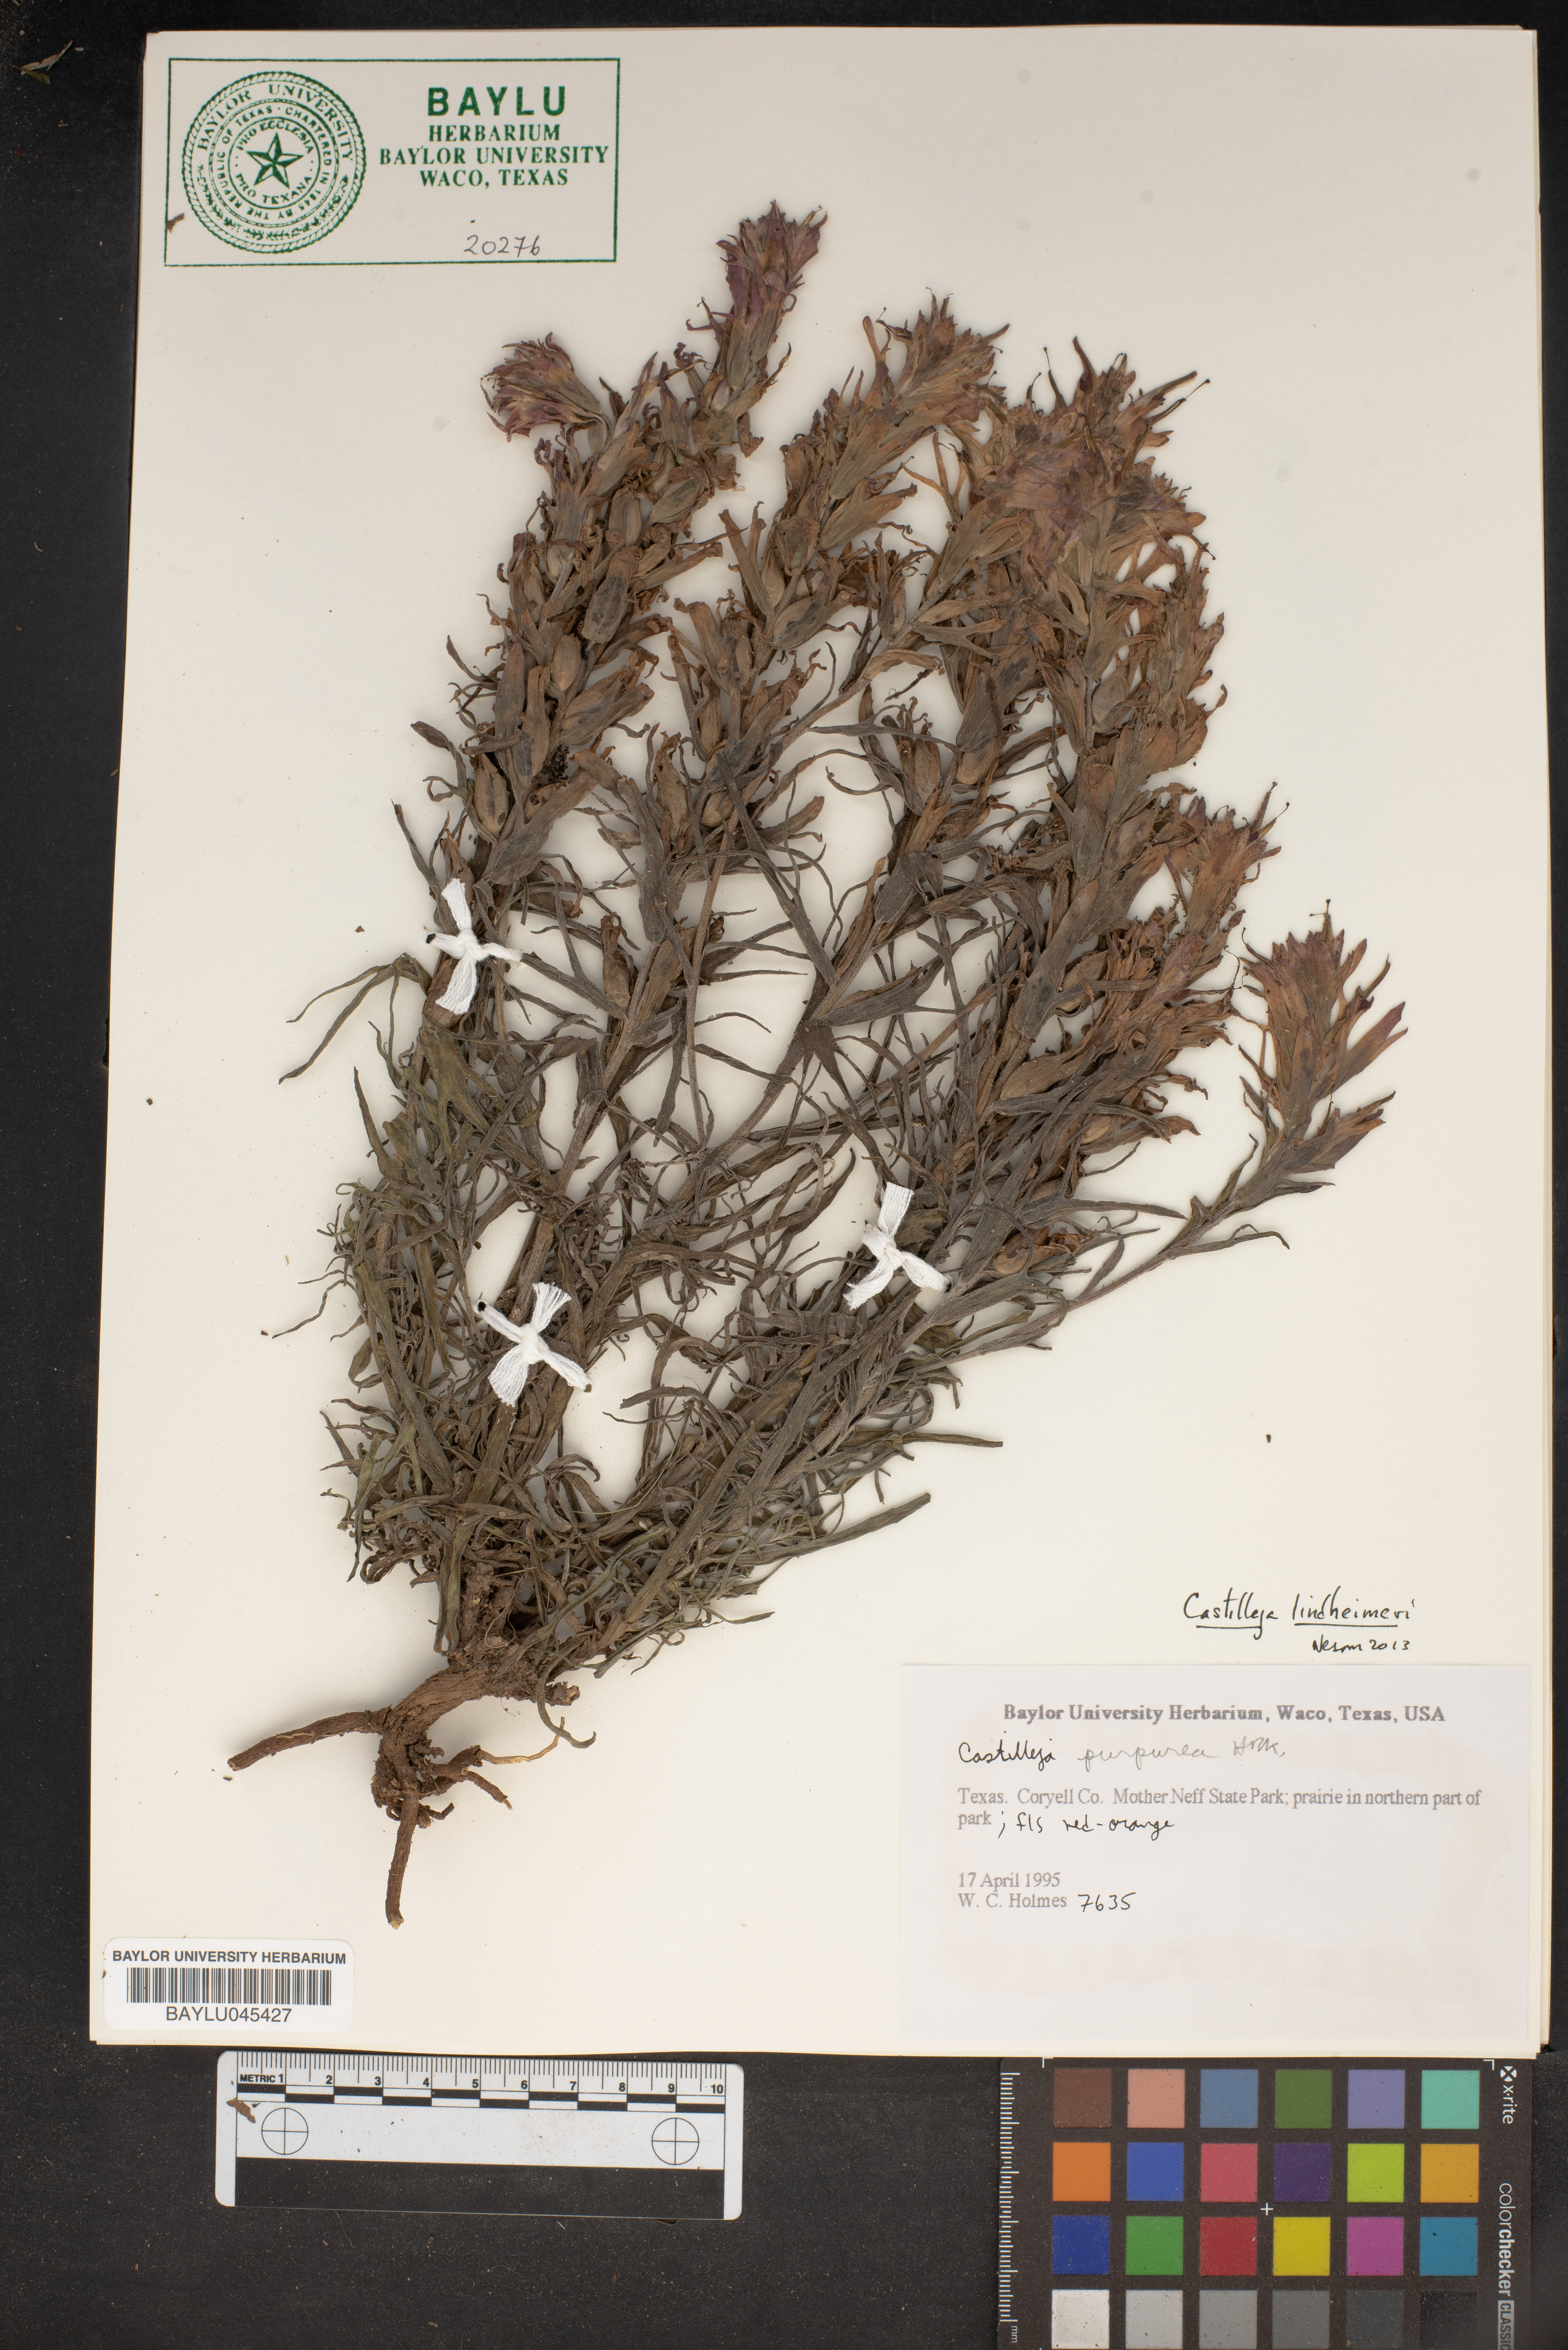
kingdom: Plantae
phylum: Tracheophyta
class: Magnoliopsida
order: Lamiales
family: Orobanchaceae
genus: Castilleja
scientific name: Castilleja lindheimeri
